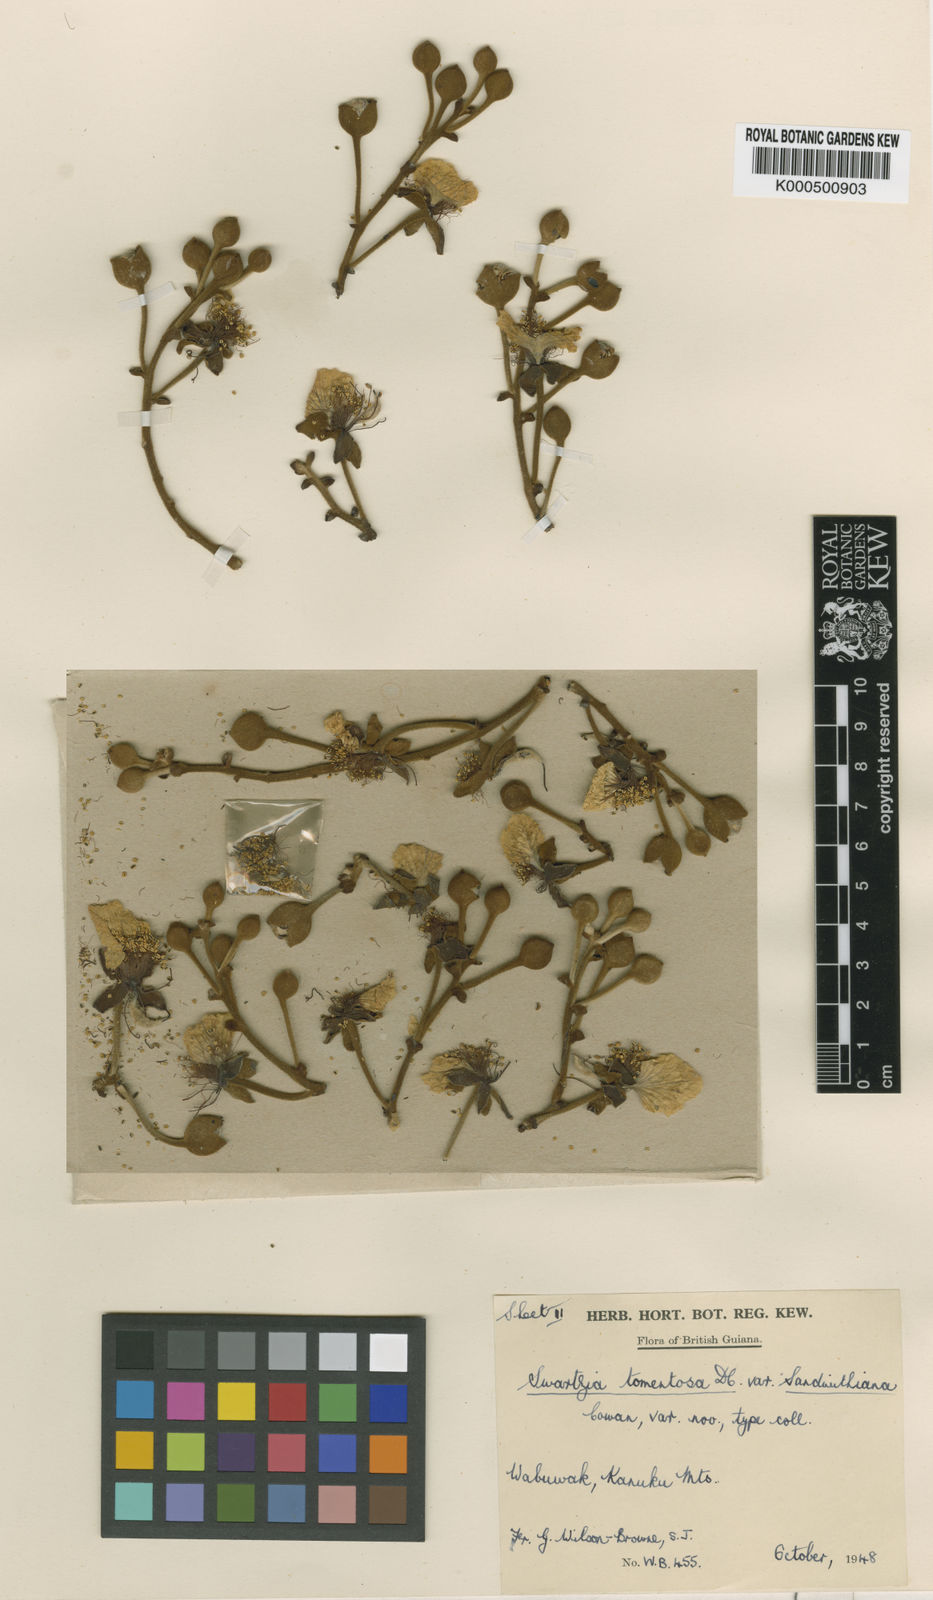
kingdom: Plantae
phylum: Tracheophyta
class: Magnoliopsida
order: Fabales
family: Fabaceae
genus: Swartzia
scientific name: Swartzia panacoco
